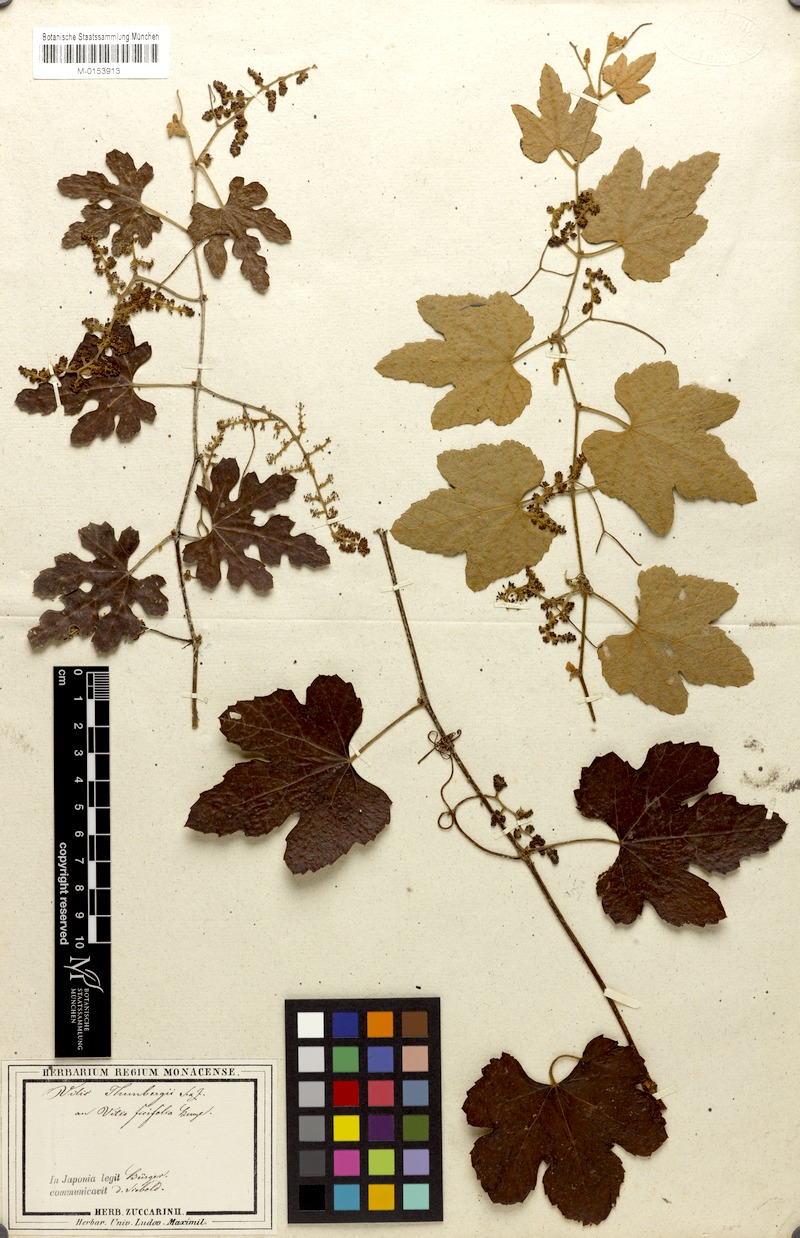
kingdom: Plantae
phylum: Tracheophyta
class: Magnoliopsida
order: Vitales
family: Vitaceae
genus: Vitis
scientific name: Vitis ficifolia
